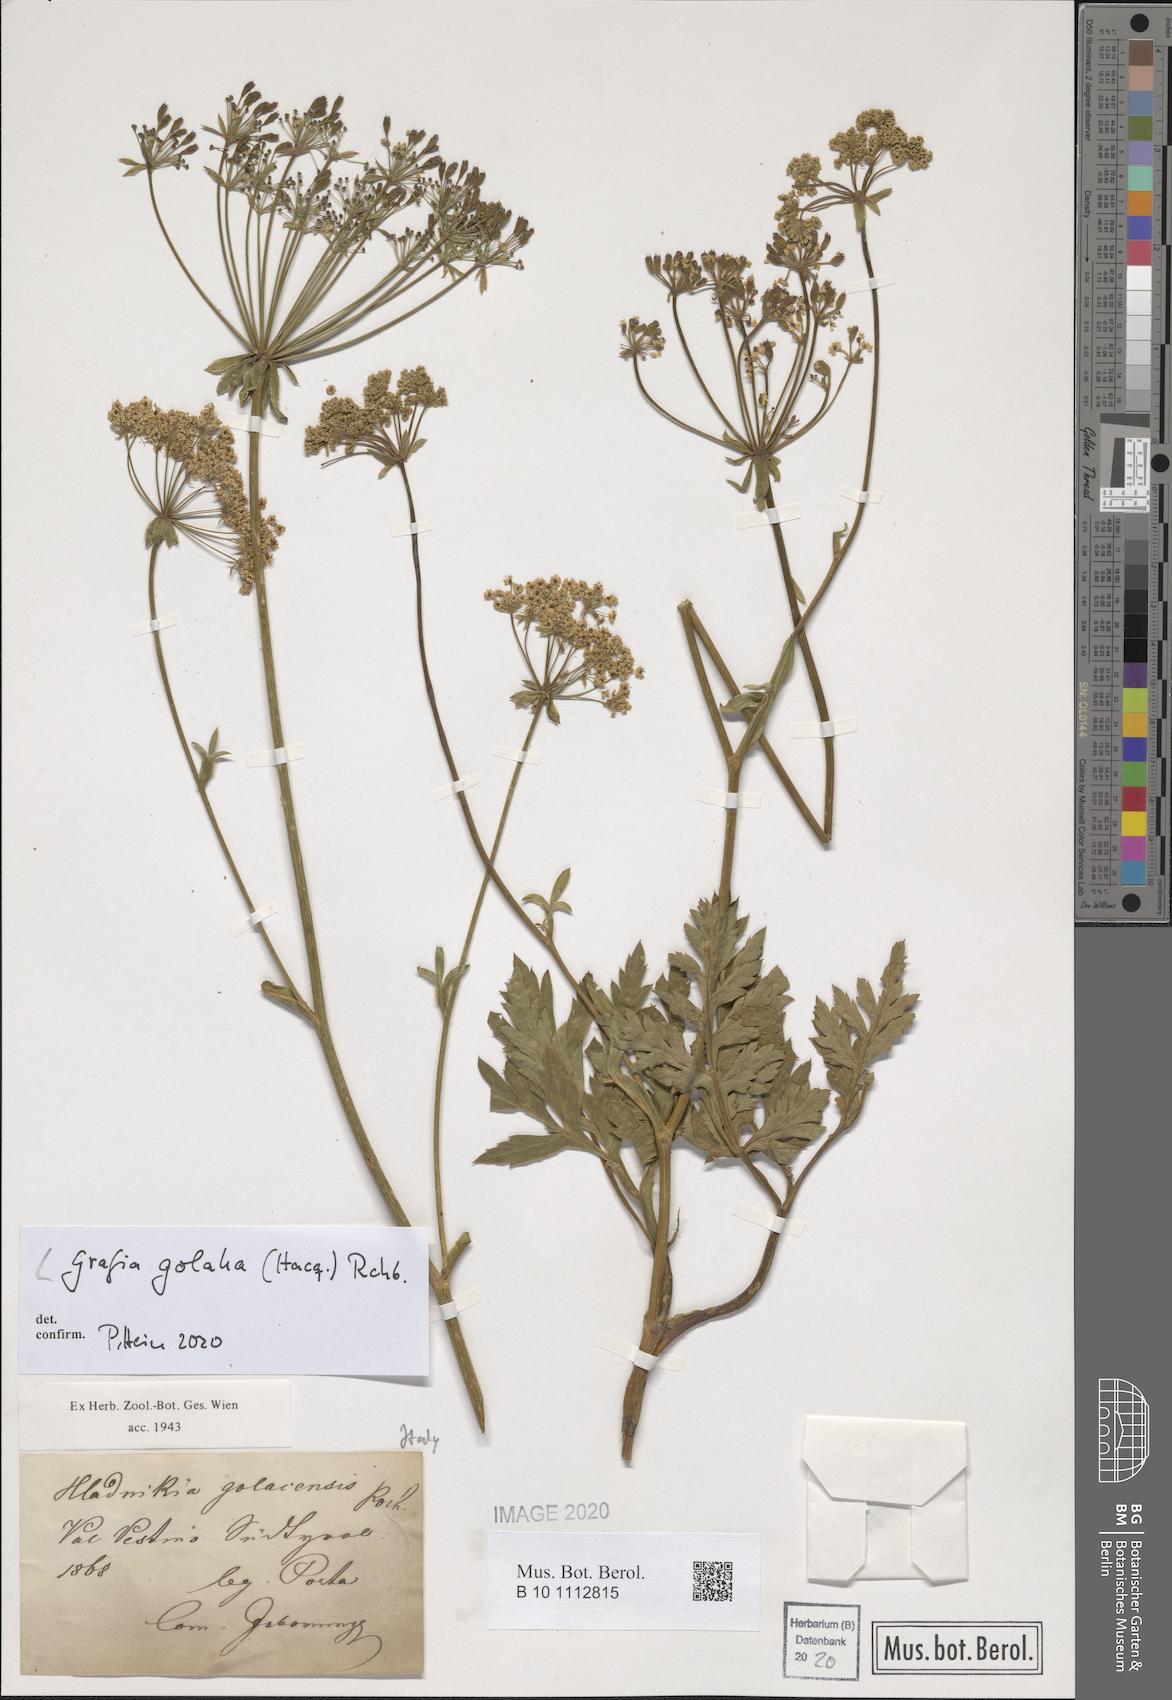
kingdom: Plantae
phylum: Tracheophyta
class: Magnoliopsida
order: Apiales
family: Apiaceae
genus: Grafia
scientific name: Grafia golaka
